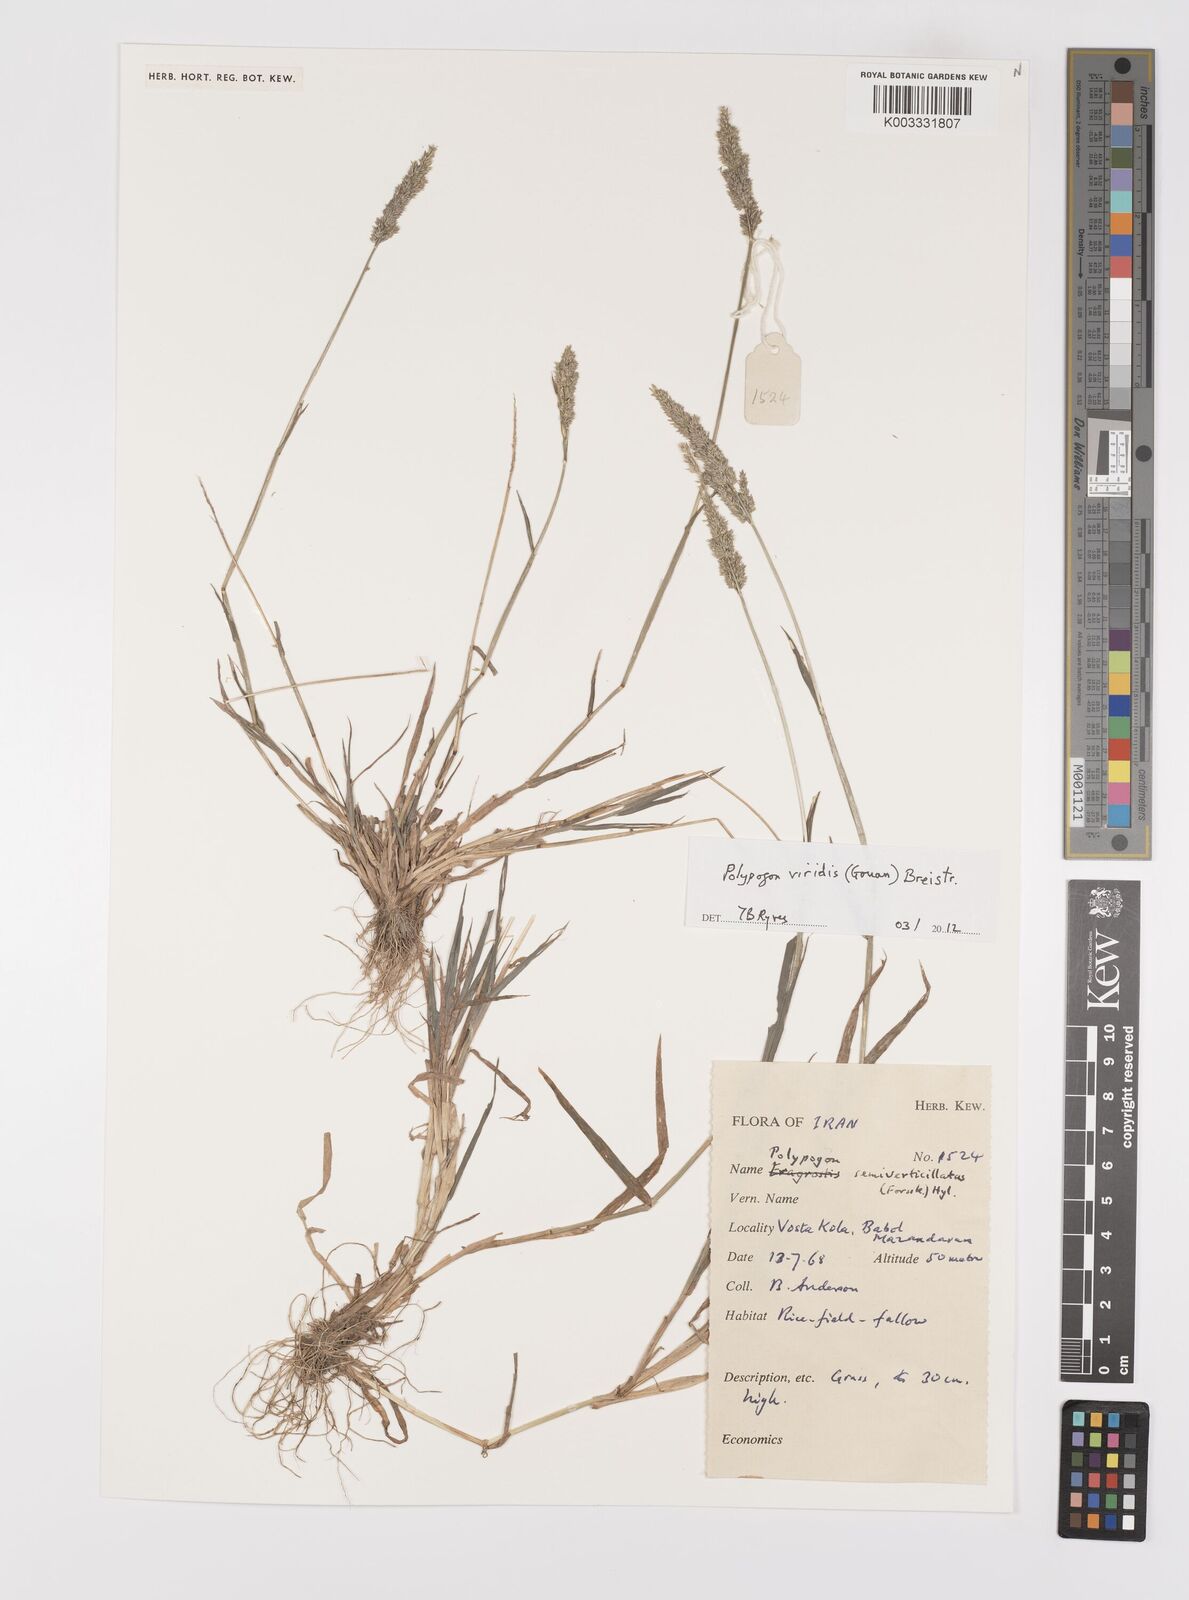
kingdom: Plantae
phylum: Tracheophyta
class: Liliopsida
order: Poales
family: Poaceae
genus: Polypogon
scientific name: Polypogon viridis
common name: Water bent
